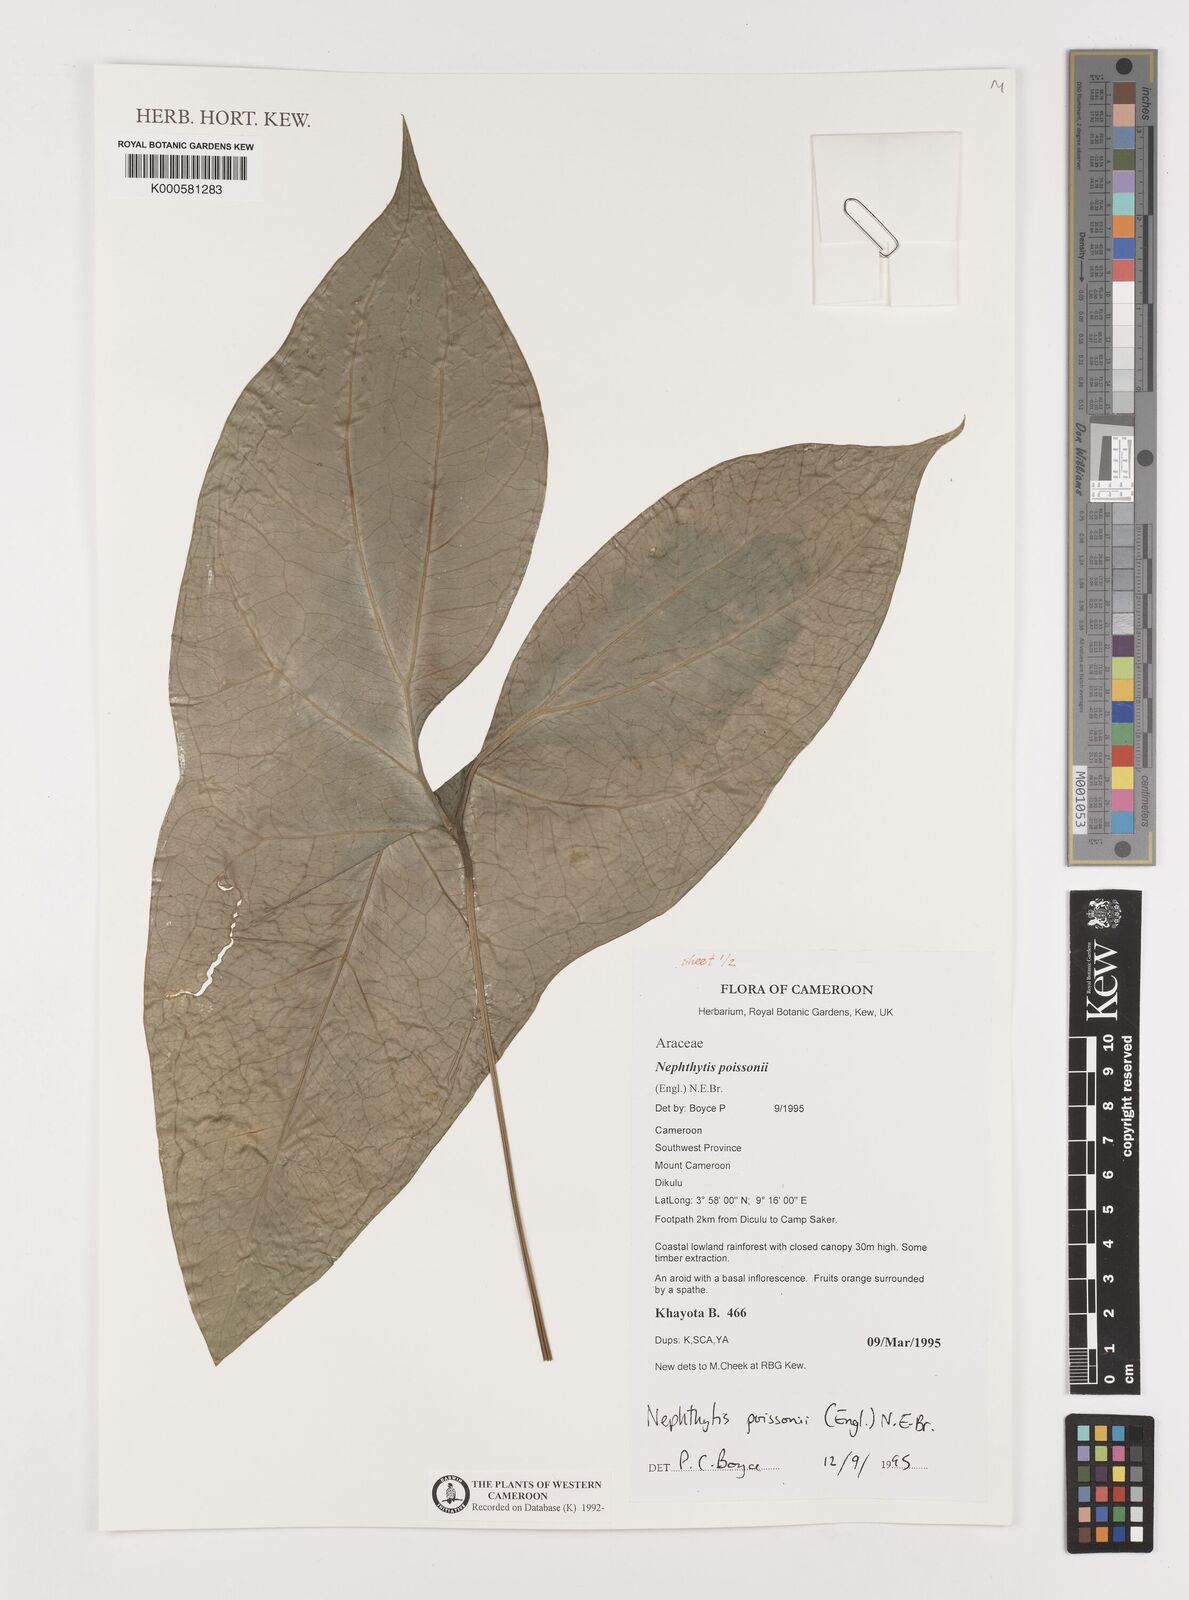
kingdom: Plantae
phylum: Tracheophyta
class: Liliopsida
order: Alismatales
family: Araceae
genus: Nephthytis
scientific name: Nephthytis poissonii
